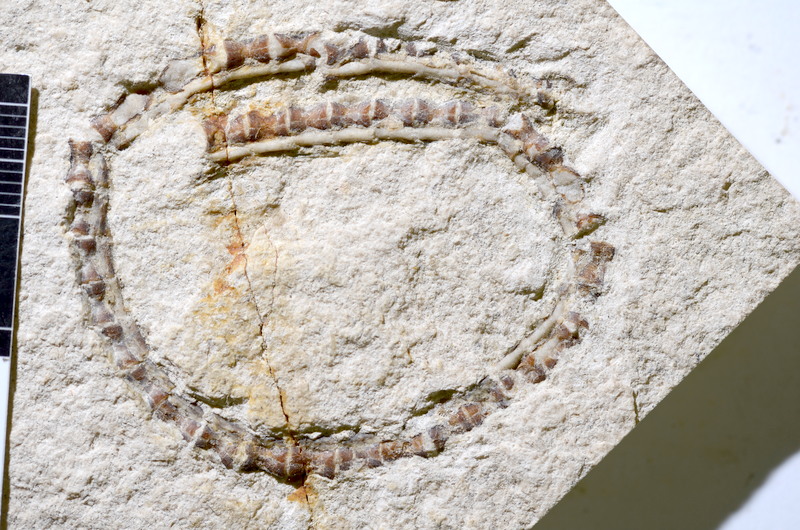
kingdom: Animalia
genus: Piscis
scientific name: Piscis
